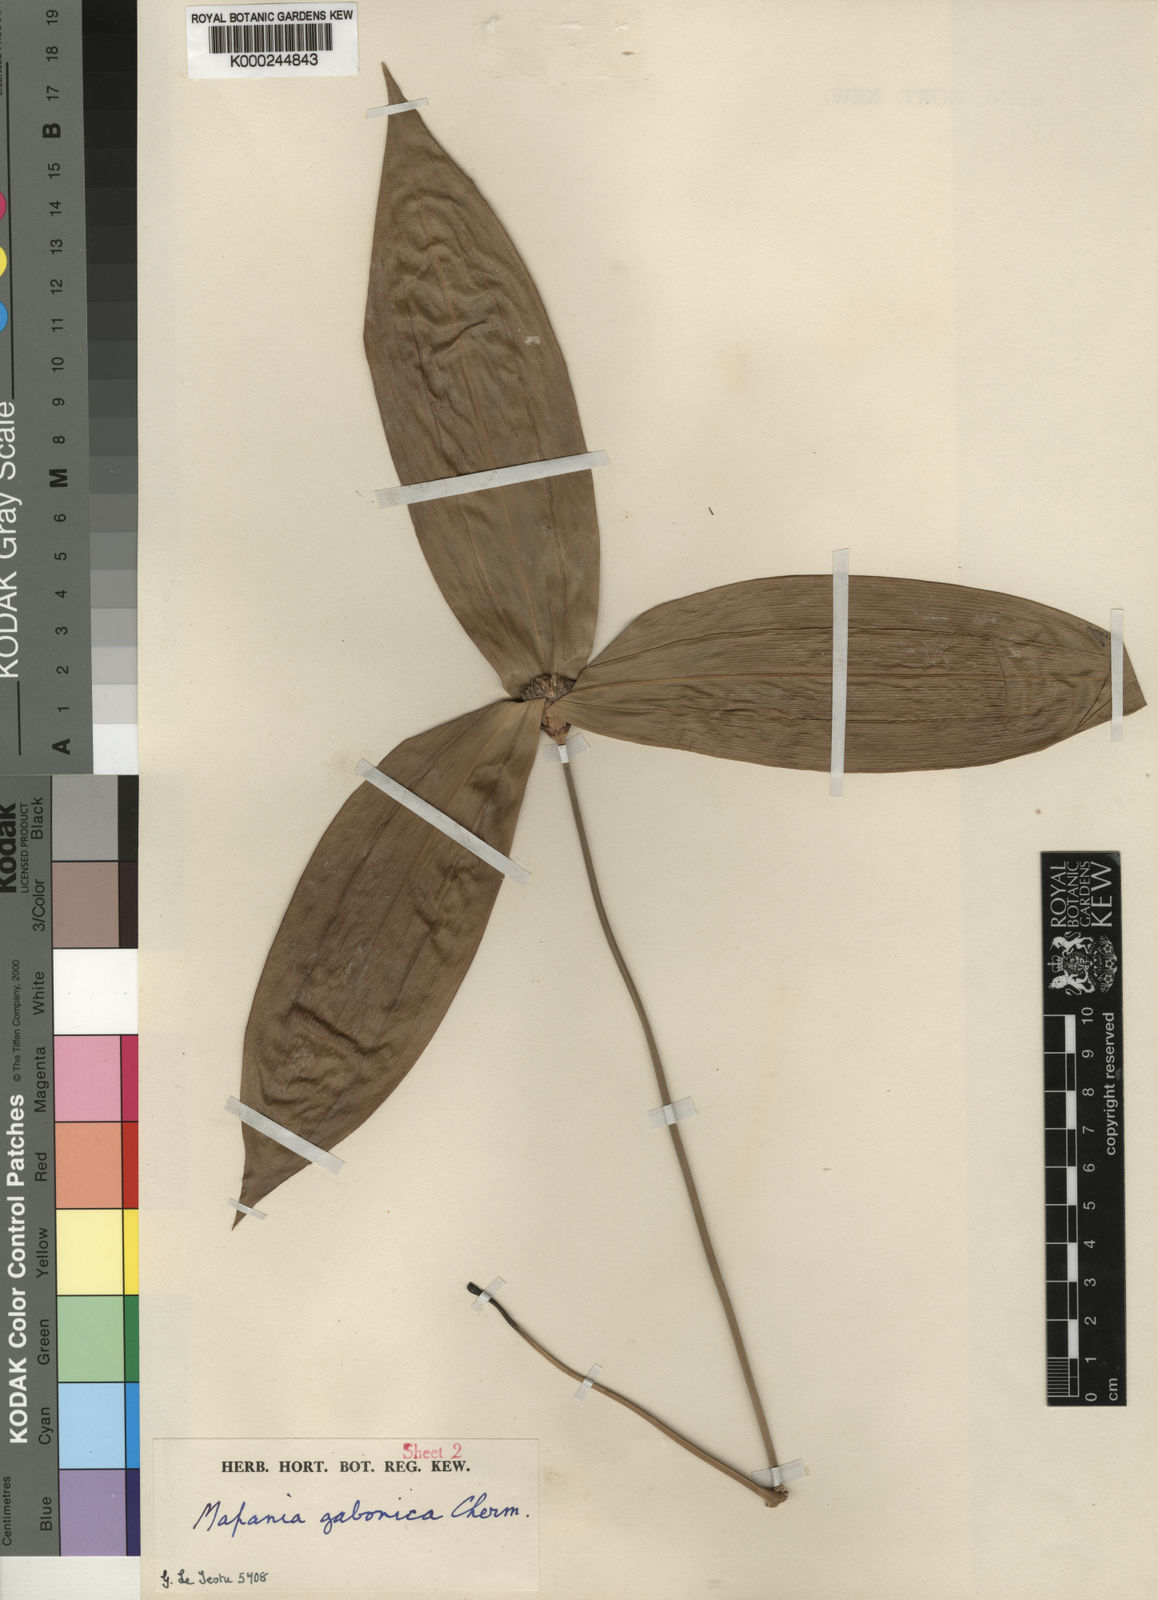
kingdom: Plantae
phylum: Tracheophyta
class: Liliopsida
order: Poales
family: Cyperaceae
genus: Mapania
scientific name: Mapania sylvatica
